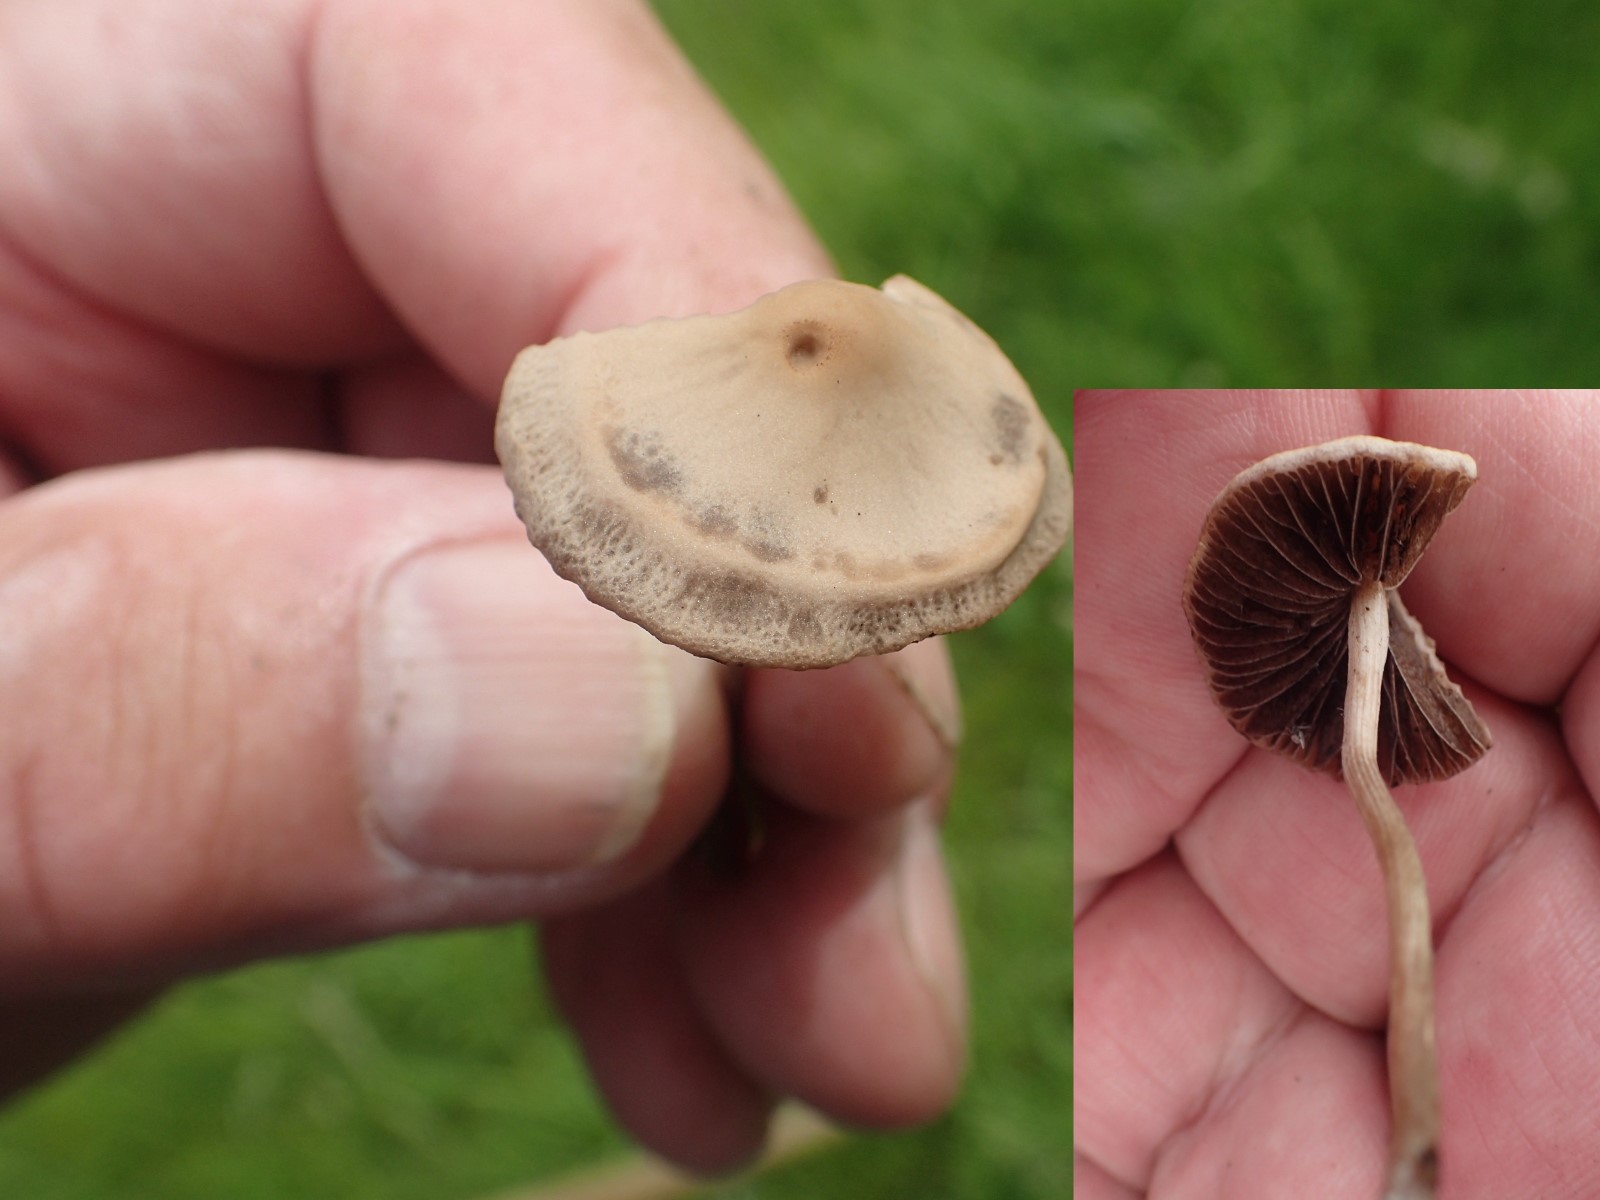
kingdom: Fungi
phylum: Basidiomycota
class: Agaricomycetes
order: Agaricales
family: Bolbitiaceae
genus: Panaeolina
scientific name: Panaeolina foenisecii
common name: høslætsvamp
